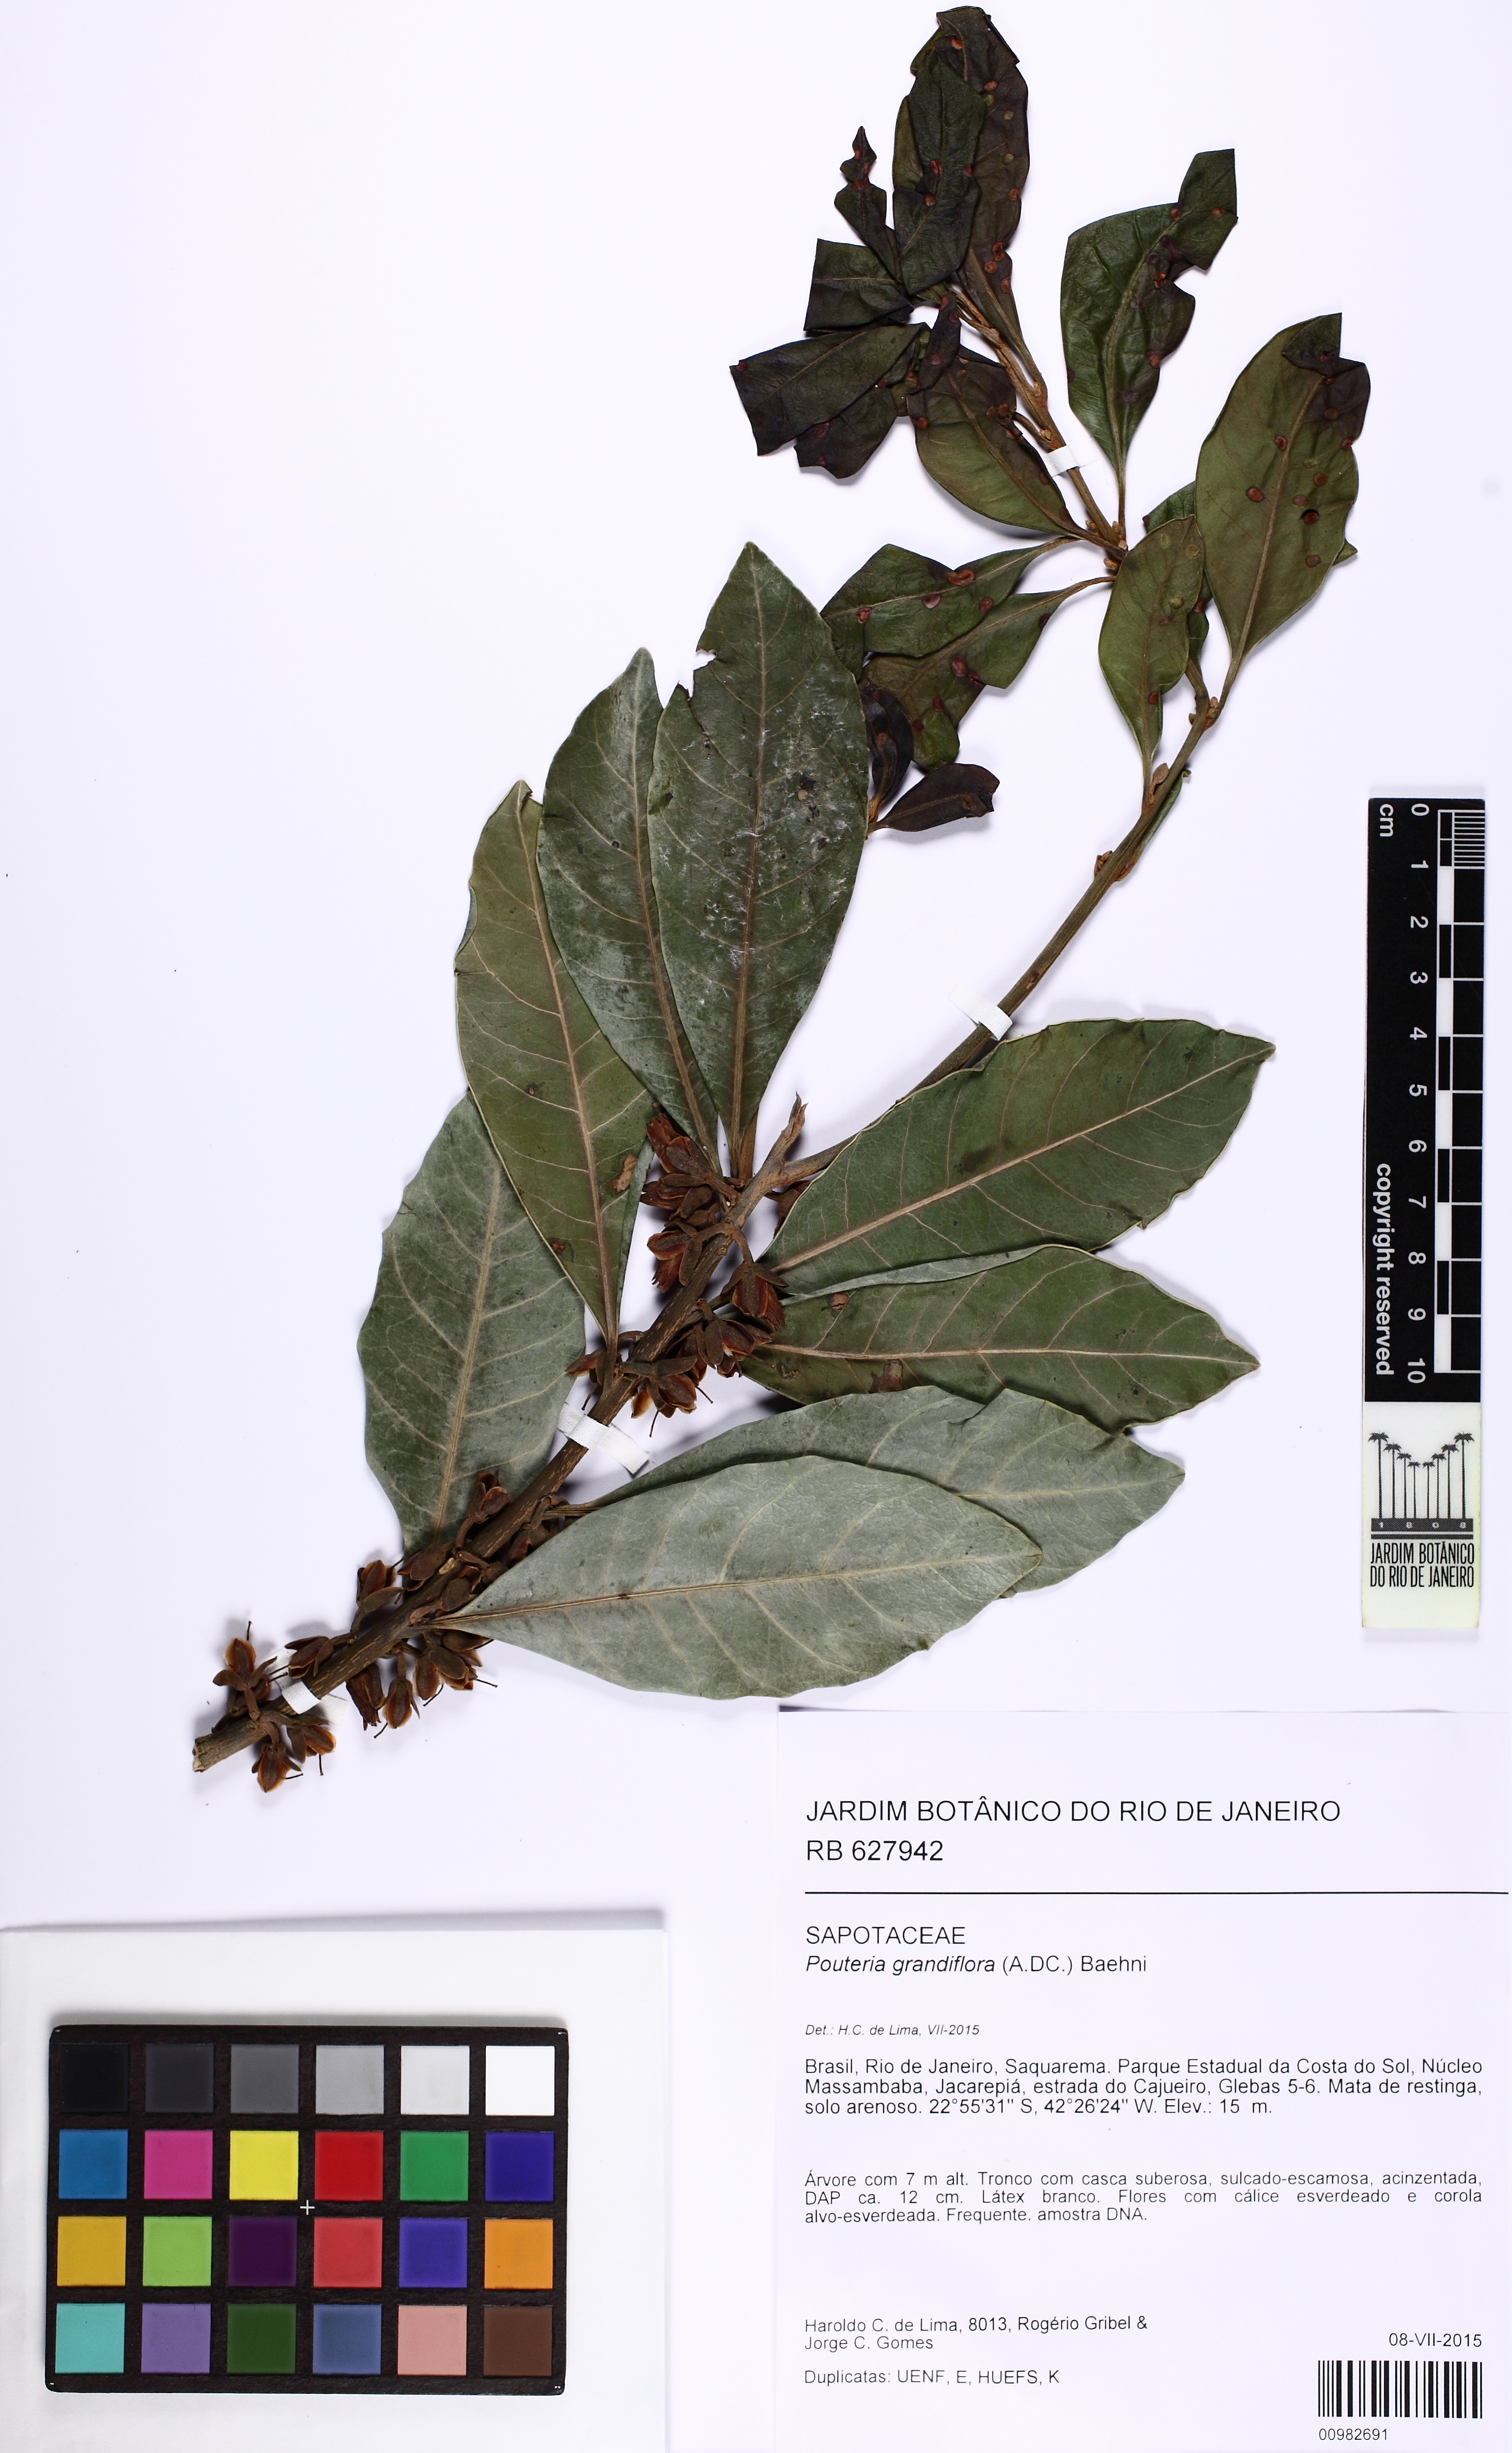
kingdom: Plantae
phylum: Tracheophyta
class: Magnoliopsida
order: Ericales
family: Sapotaceae
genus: Pouteria
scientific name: Pouteria grandiflora
